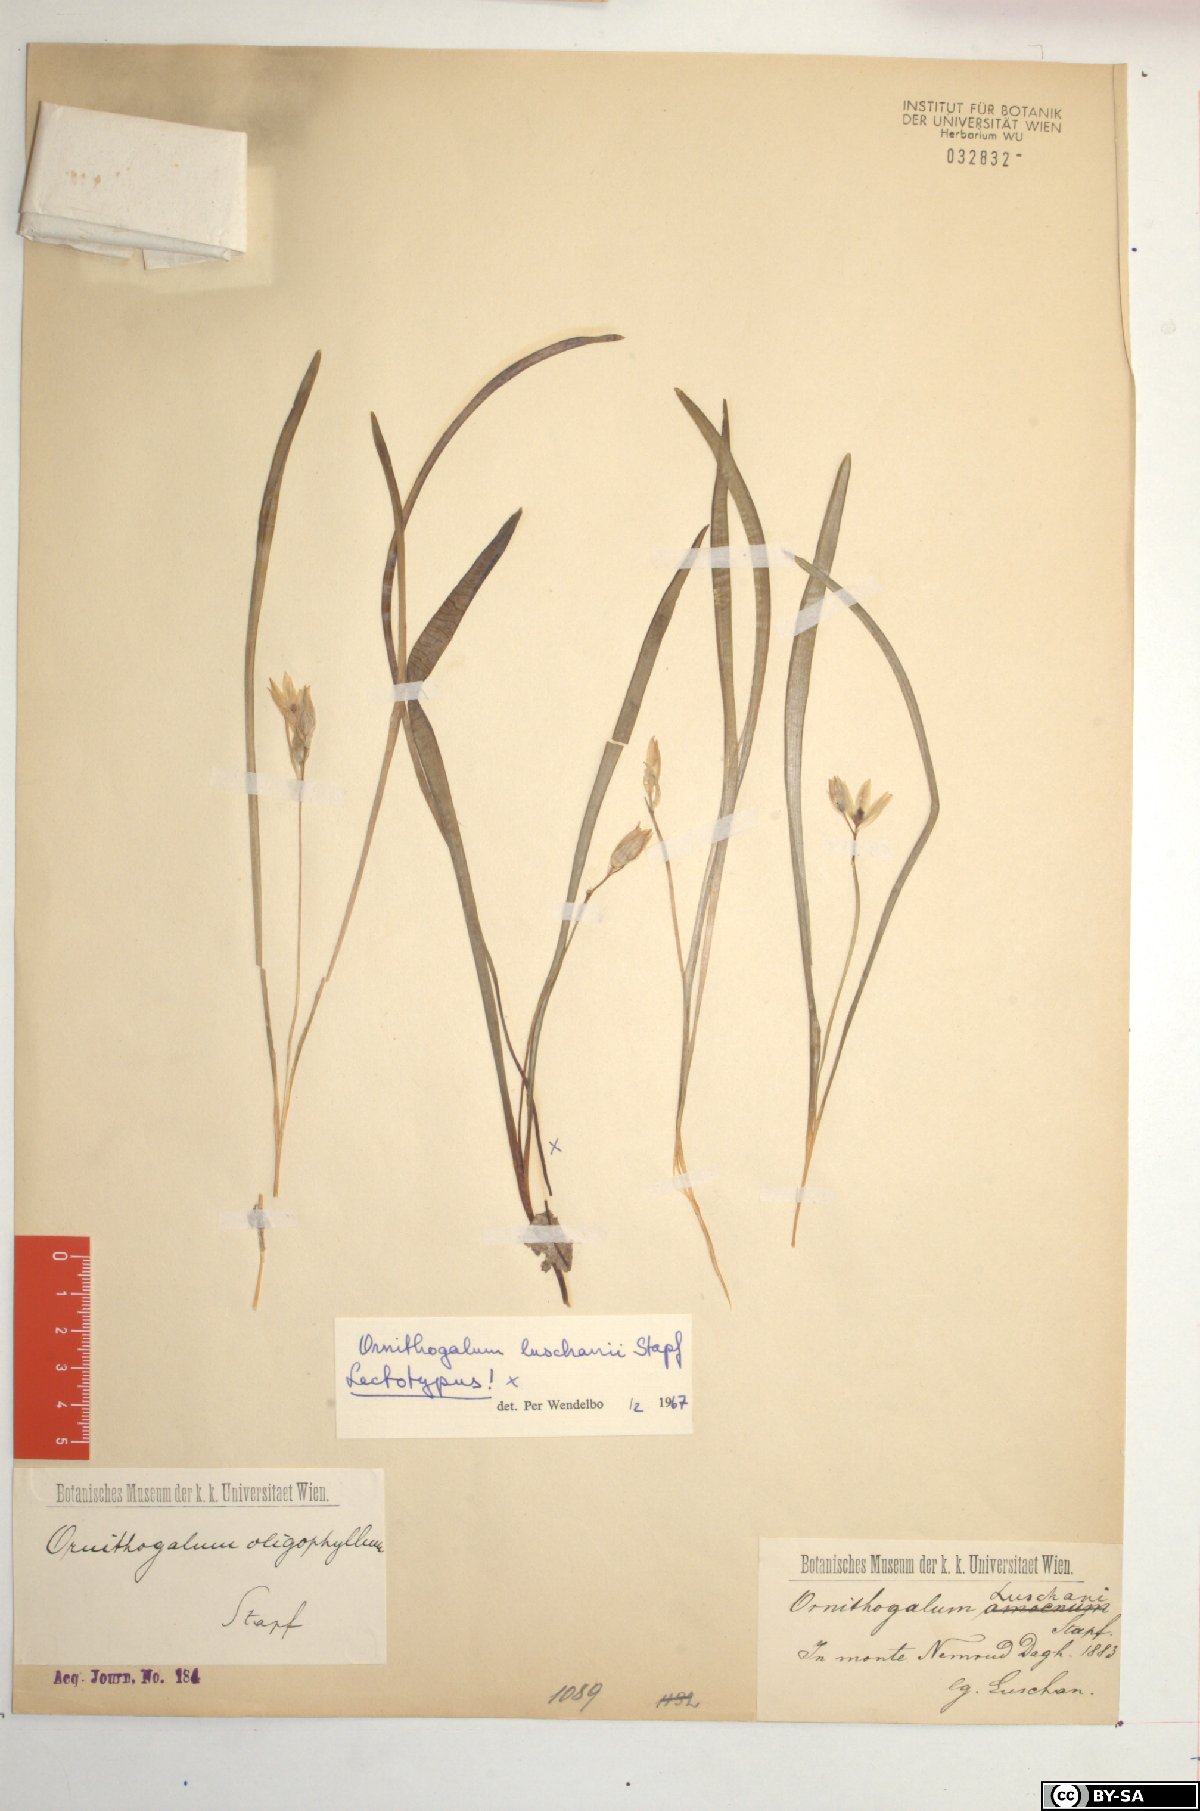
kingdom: Plantae
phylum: Tracheophyta
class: Liliopsida
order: Asparagales
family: Asparagaceae
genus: Ornithogalum
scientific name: Ornithogalum luschanii
